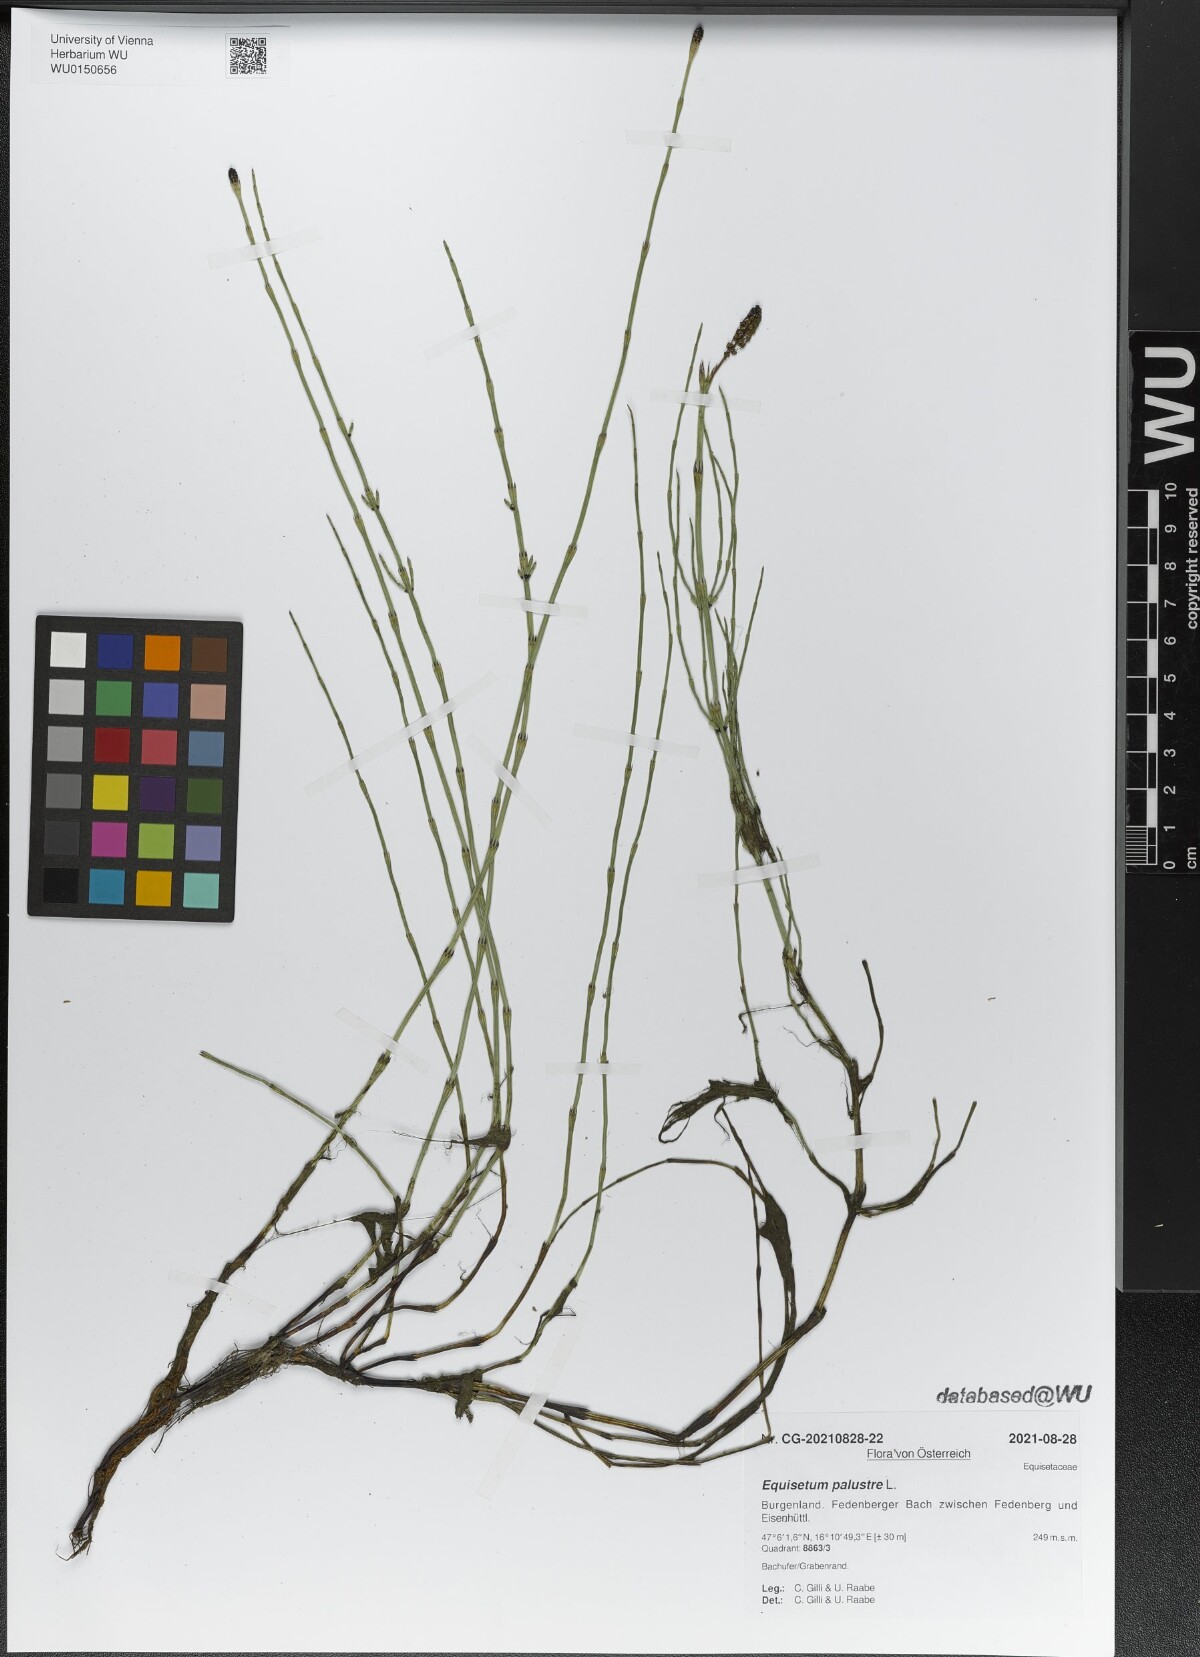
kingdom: Plantae
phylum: Tracheophyta
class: Polypodiopsida
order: Equisetales
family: Equisetaceae
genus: Equisetum
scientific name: Equisetum palustre
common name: Marsh horsetail
